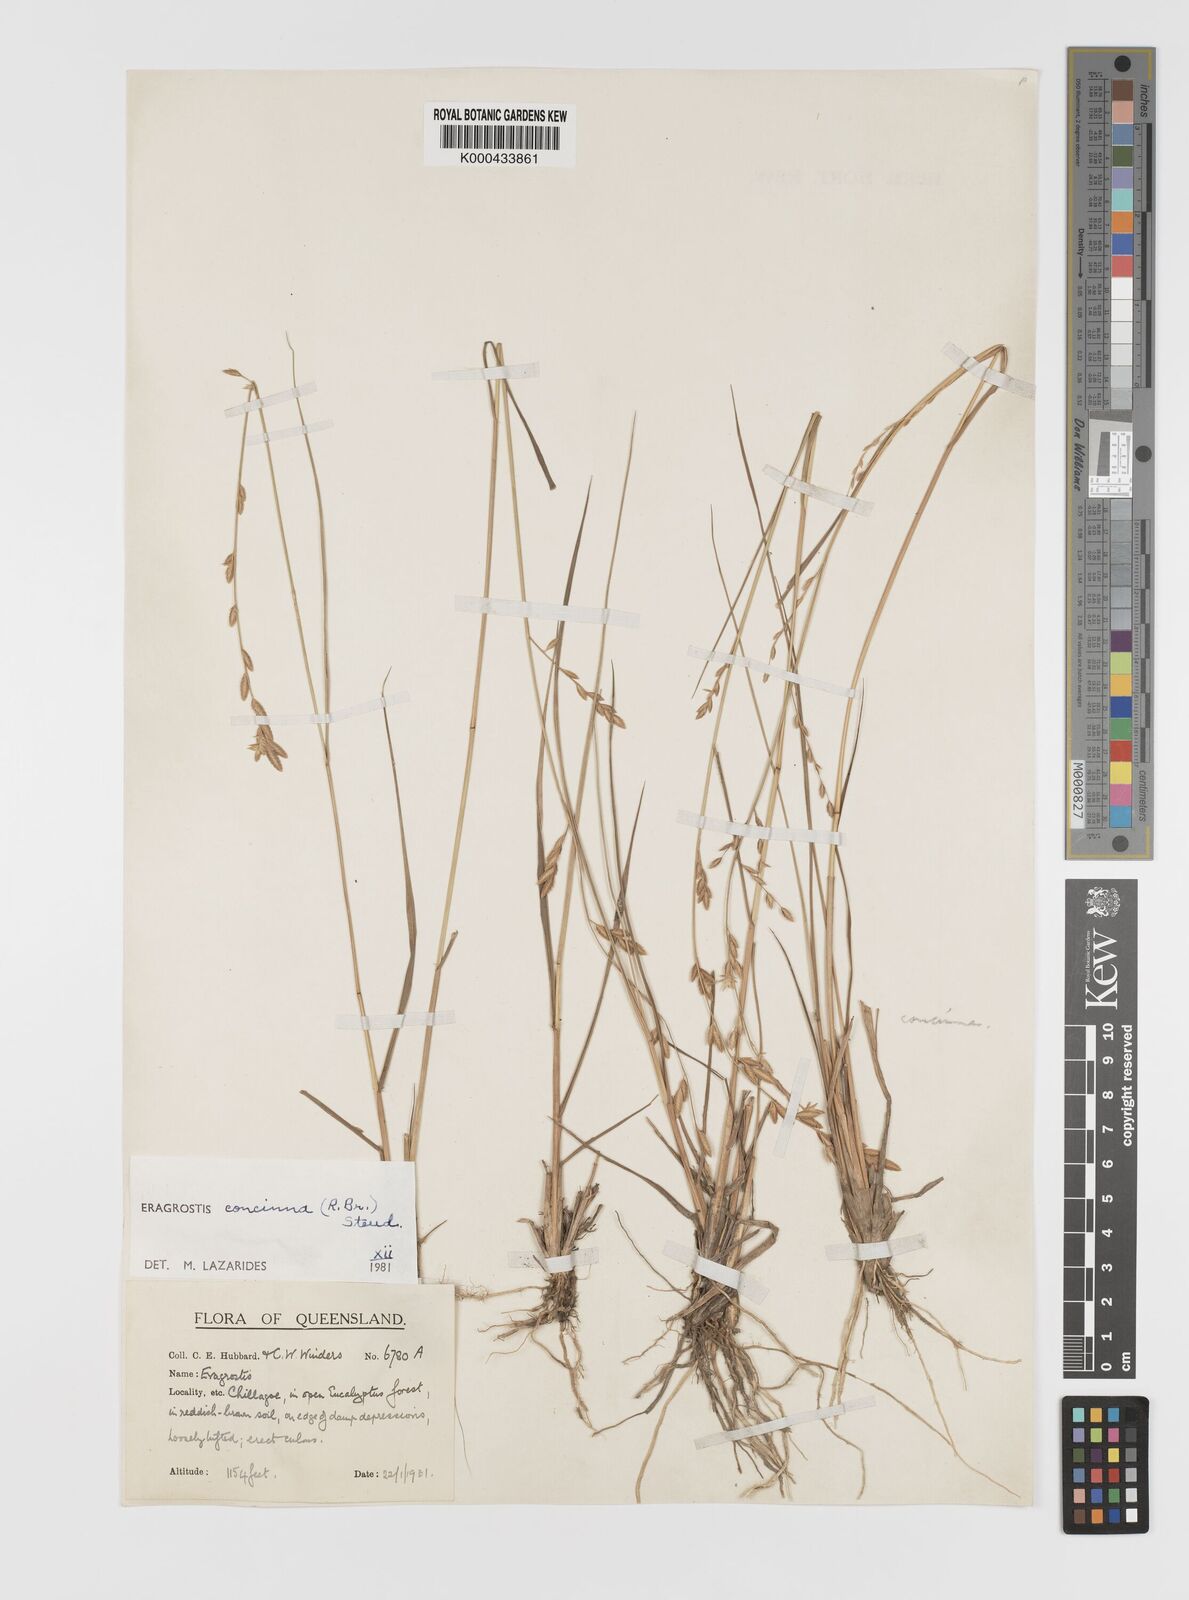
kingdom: Plantae
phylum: Tracheophyta
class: Liliopsida
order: Poales
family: Poaceae
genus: Eragrostis
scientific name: Eragrostis concinna
